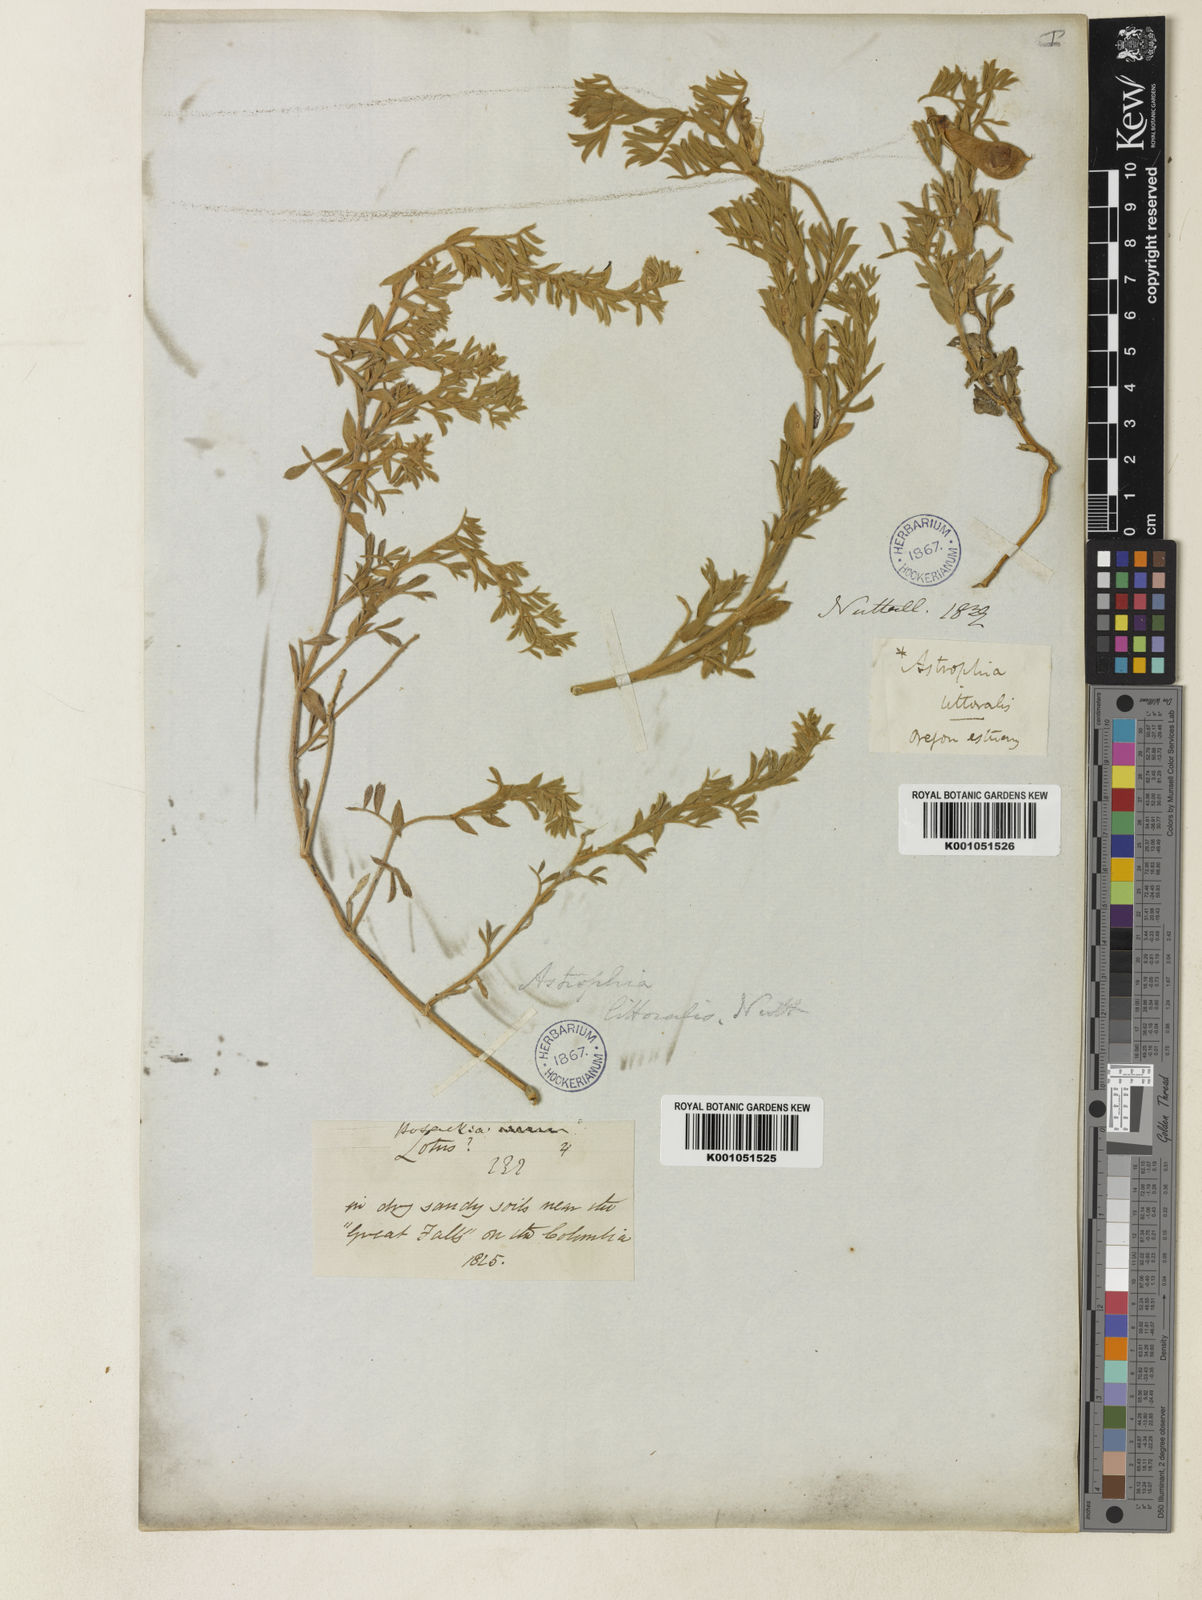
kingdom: Plantae
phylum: Tracheophyta
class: Magnoliopsida
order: Fabales
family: Fabaceae
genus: Lathyrus
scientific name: Lathyrus littoralis
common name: Dune sweet pea
